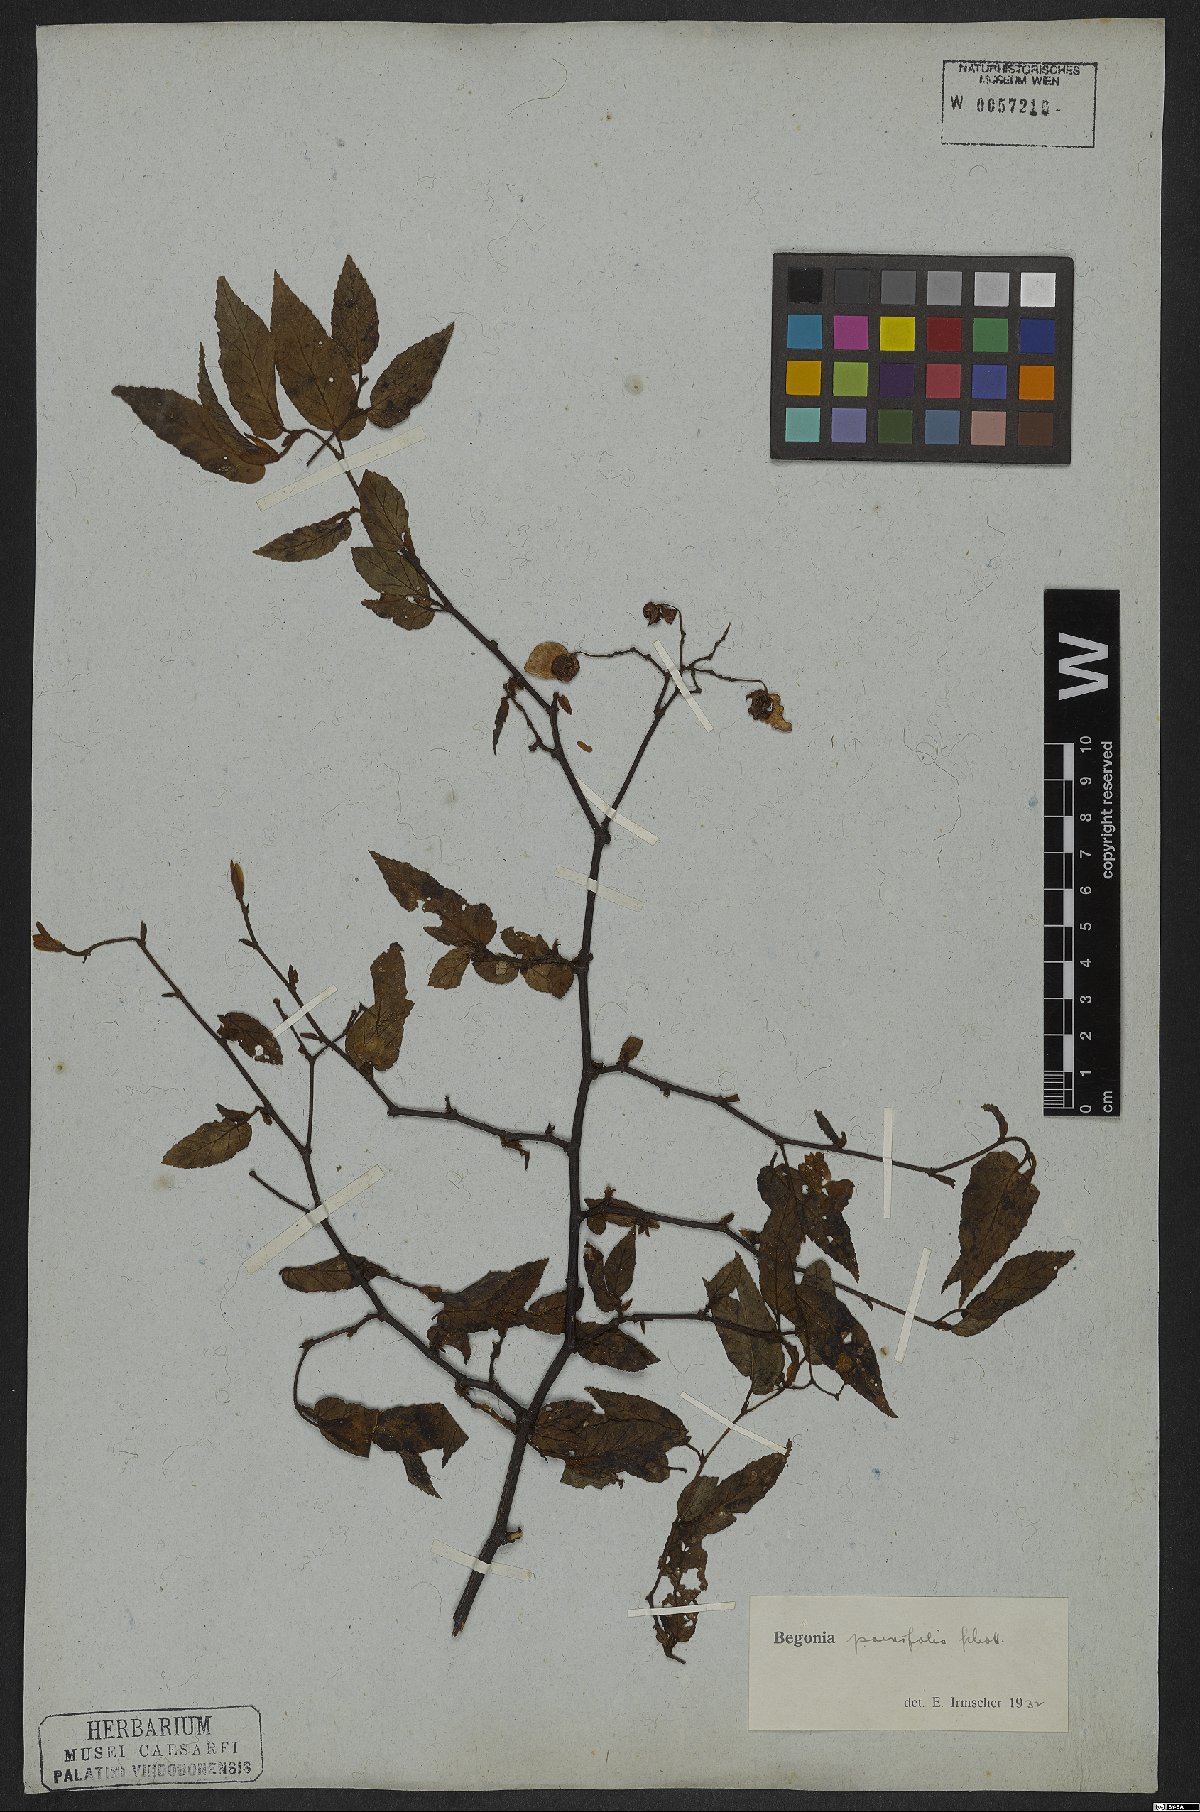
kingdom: Plantae
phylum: Tracheophyta
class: Magnoliopsida
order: Cucurbitales
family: Begoniaceae
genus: Begonia
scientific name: Begonia parvifolia
